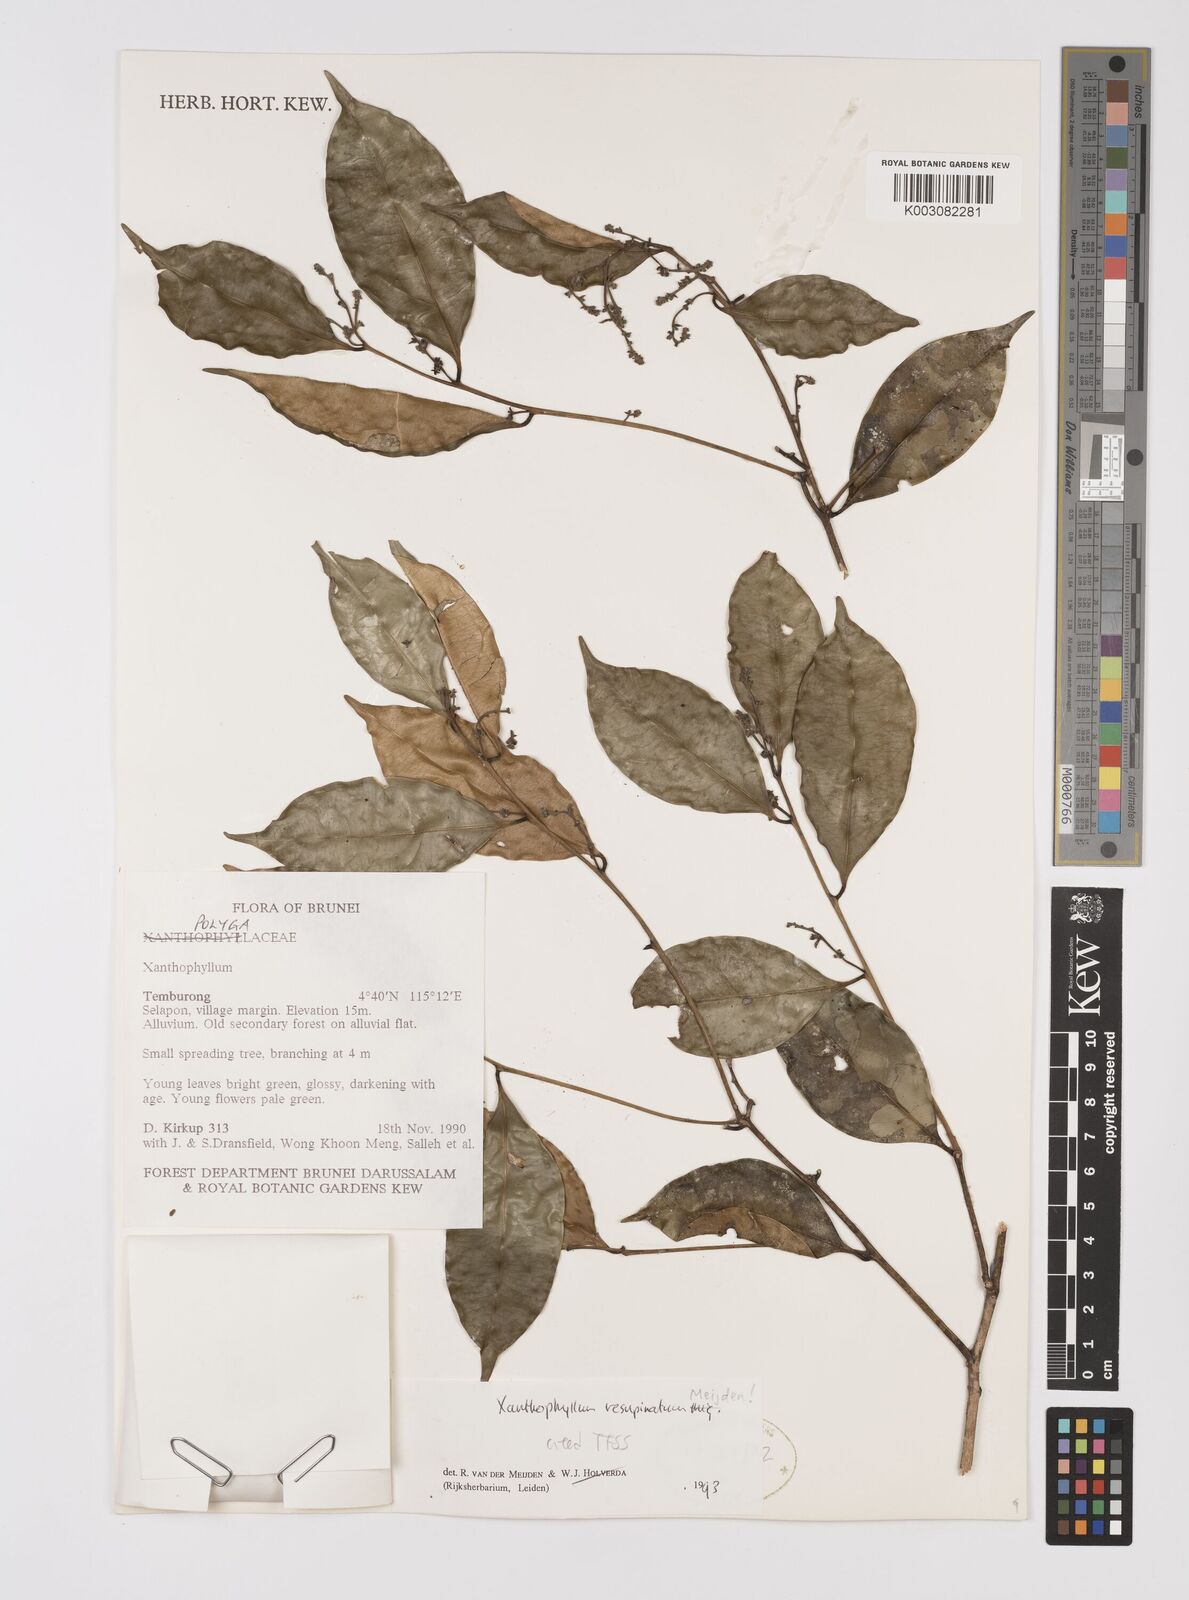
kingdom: Plantae
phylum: Tracheophyta
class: Magnoliopsida
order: Fabales
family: Polygalaceae
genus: Xanthophyllum
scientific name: Xanthophyllum resupinatum
